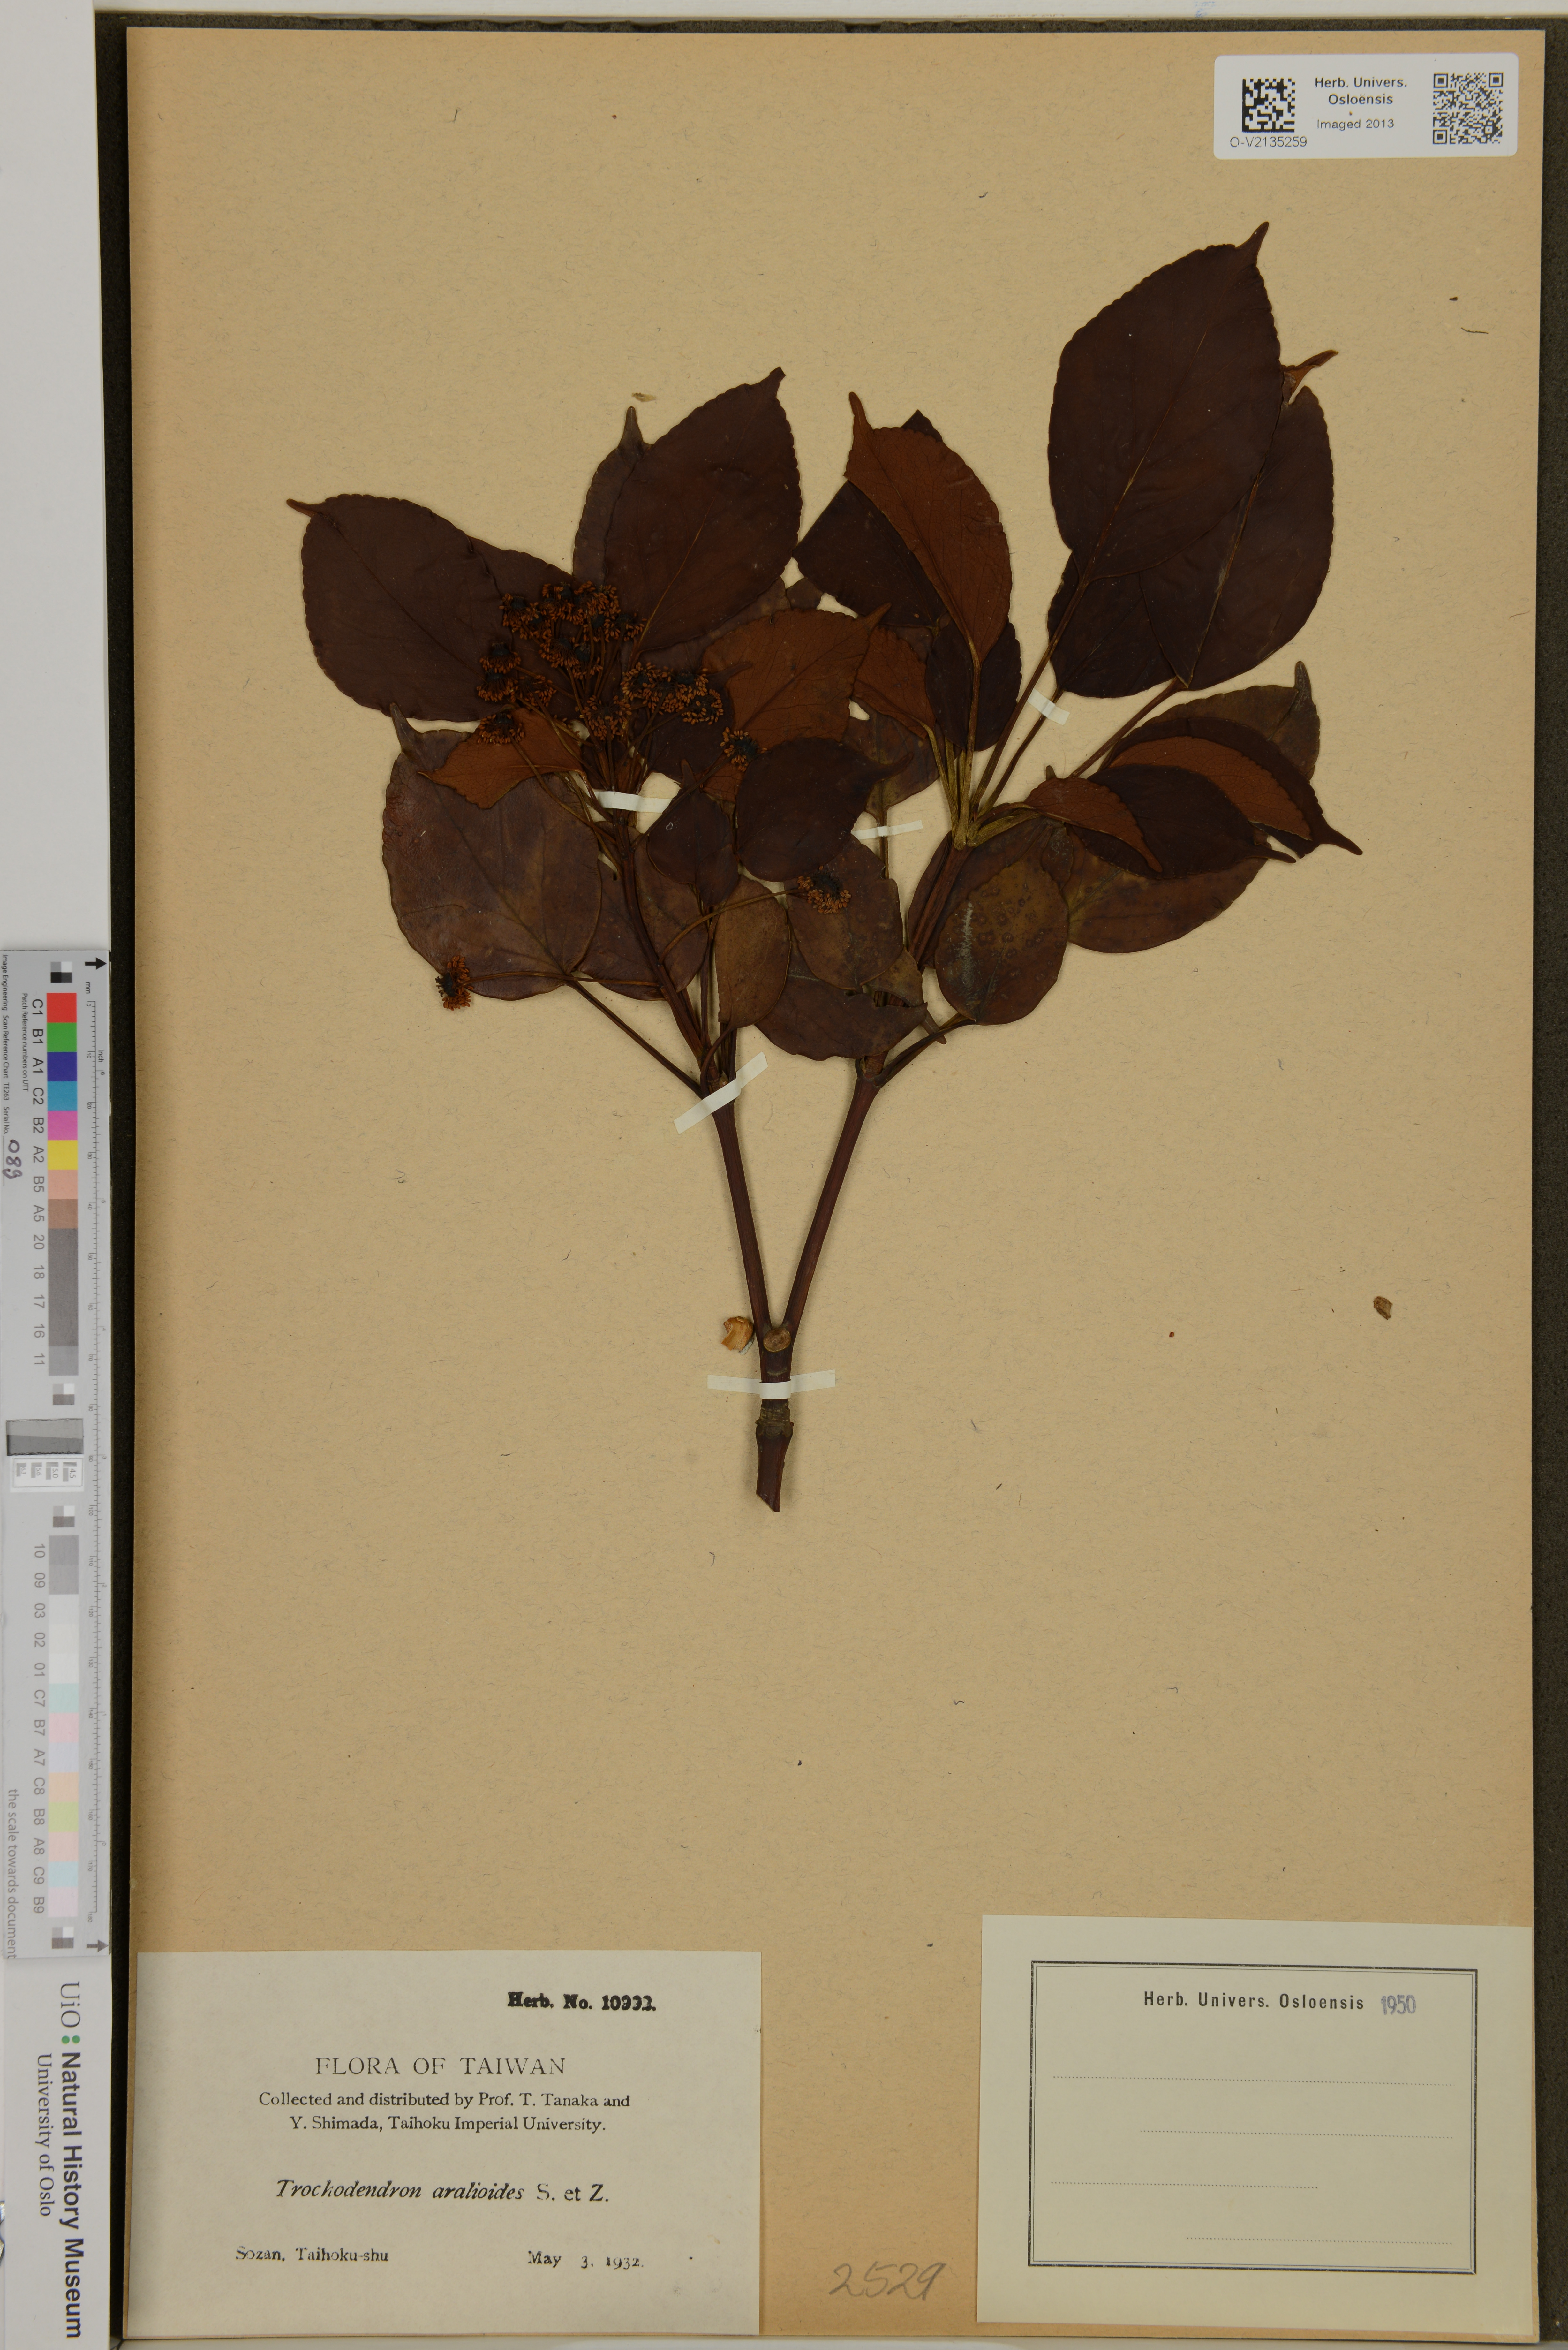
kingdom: Plantae
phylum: Tracheophyta
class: Magnoliopsida
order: Trochodendrales
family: Trochodendraceae
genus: Trochodendron
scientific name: Trochodendron aralioides
